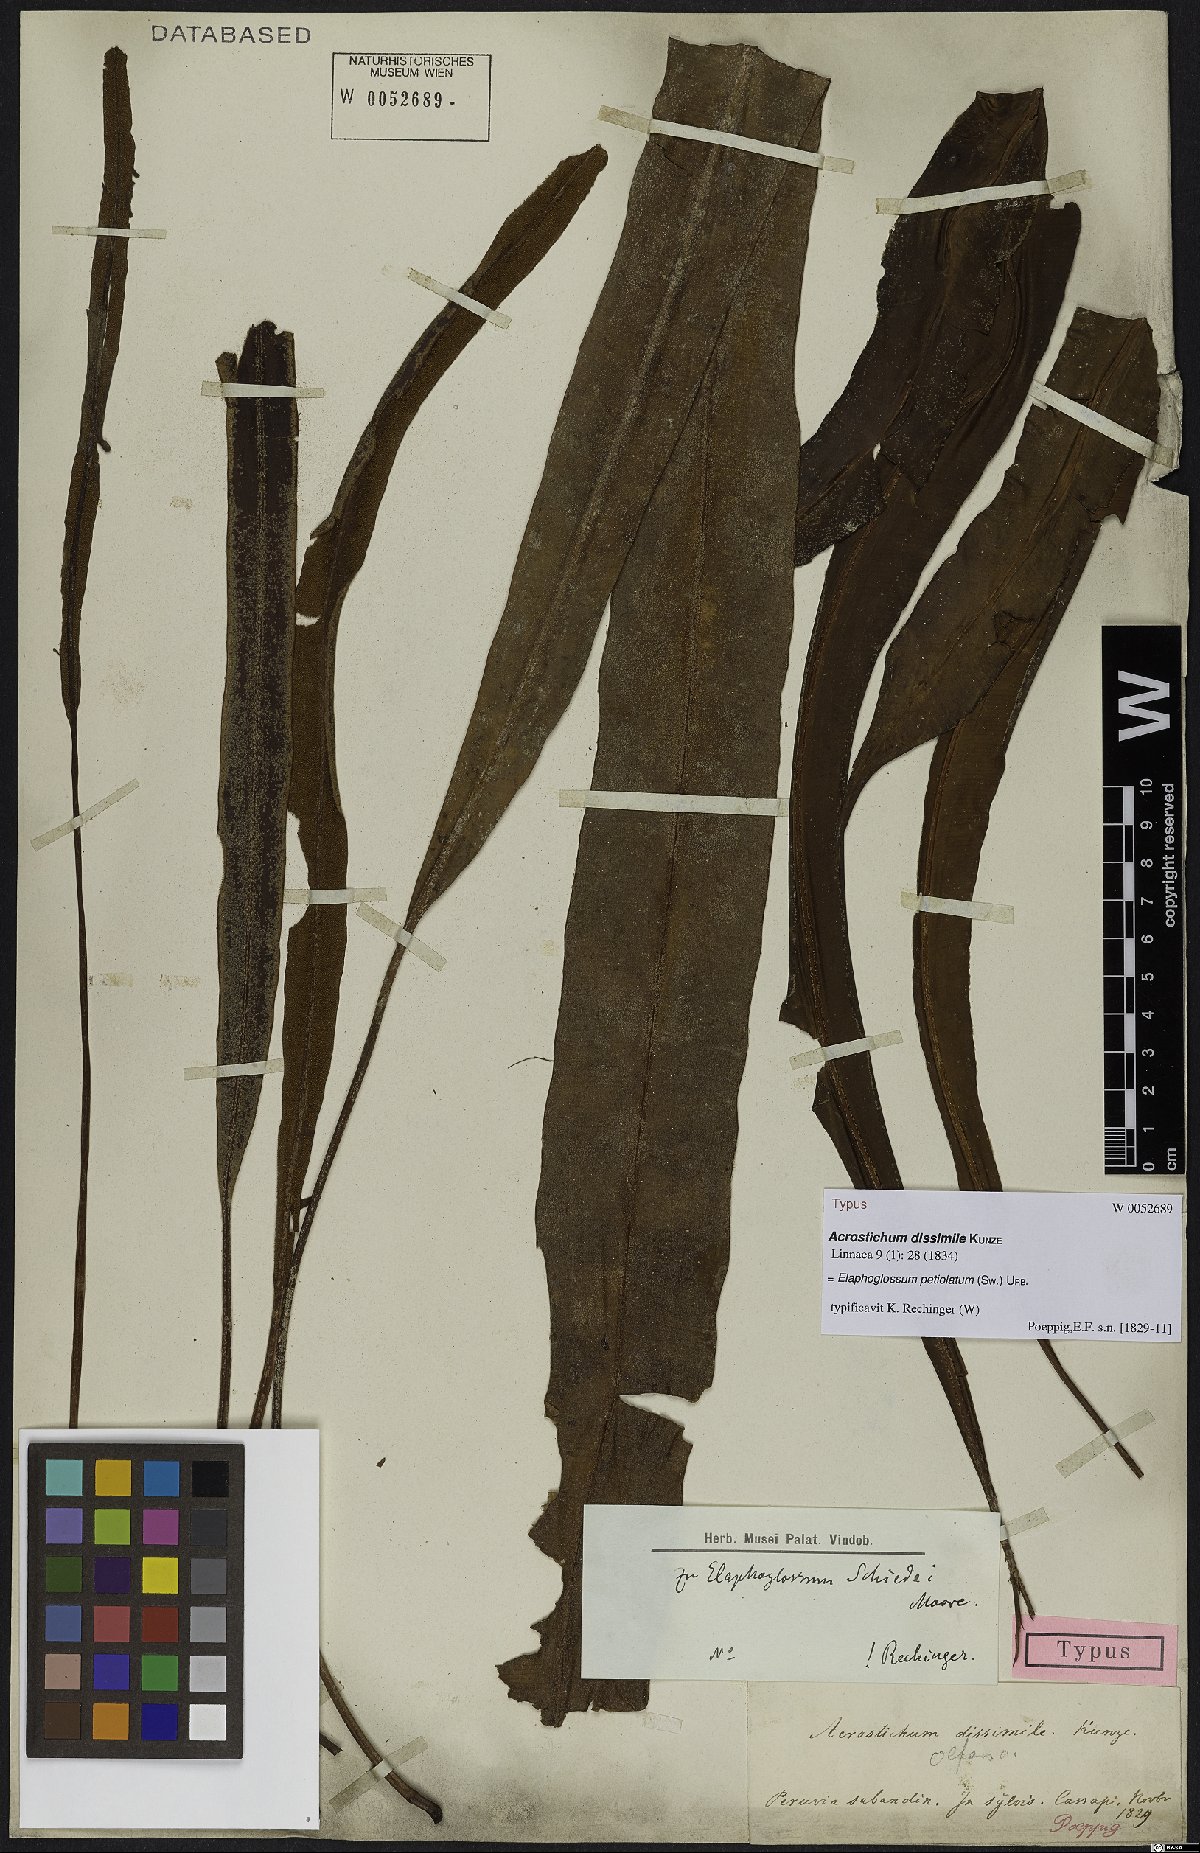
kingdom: Plantae
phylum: Tracheophyta
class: Polypodiopsida
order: Polypodiales
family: Dryopteridaceae
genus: Elaphoglossum
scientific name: Elaphoglossum petiolatum
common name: Graceful tonguefern
